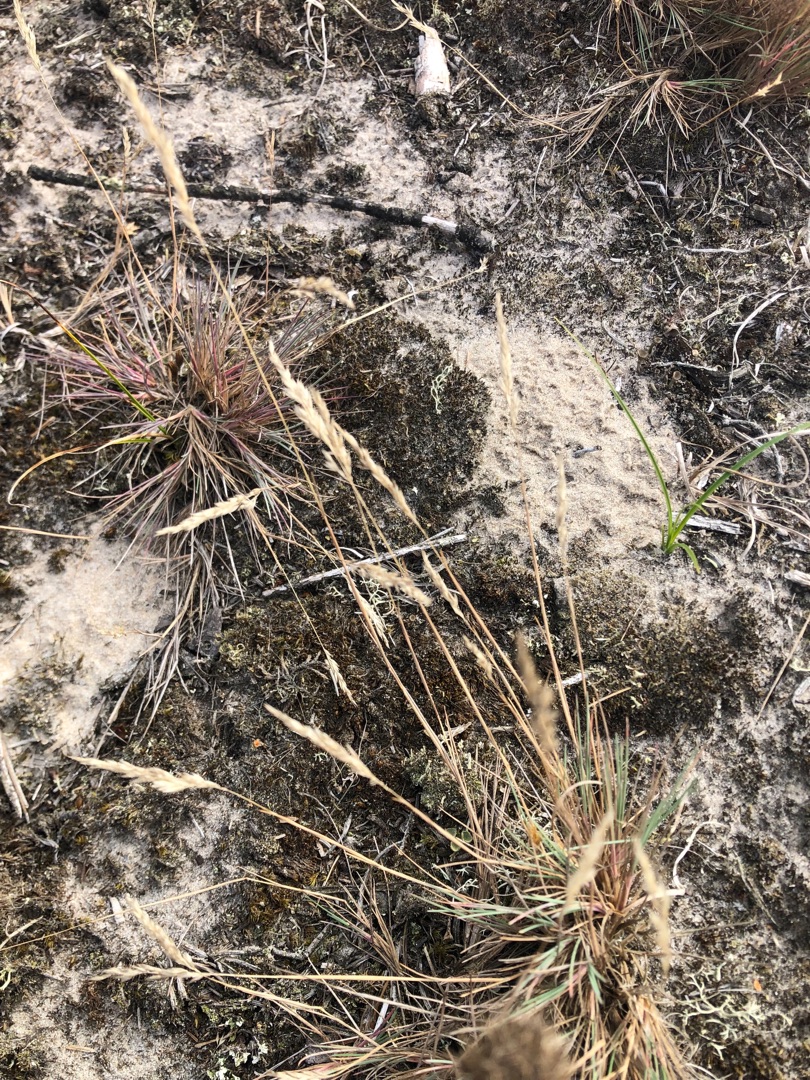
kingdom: Plantae
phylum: Tracheophyta
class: Liliopsida
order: Poales
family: Poaceae
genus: Corynephorus
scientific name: Corynephorus canescens
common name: Sandskæg
